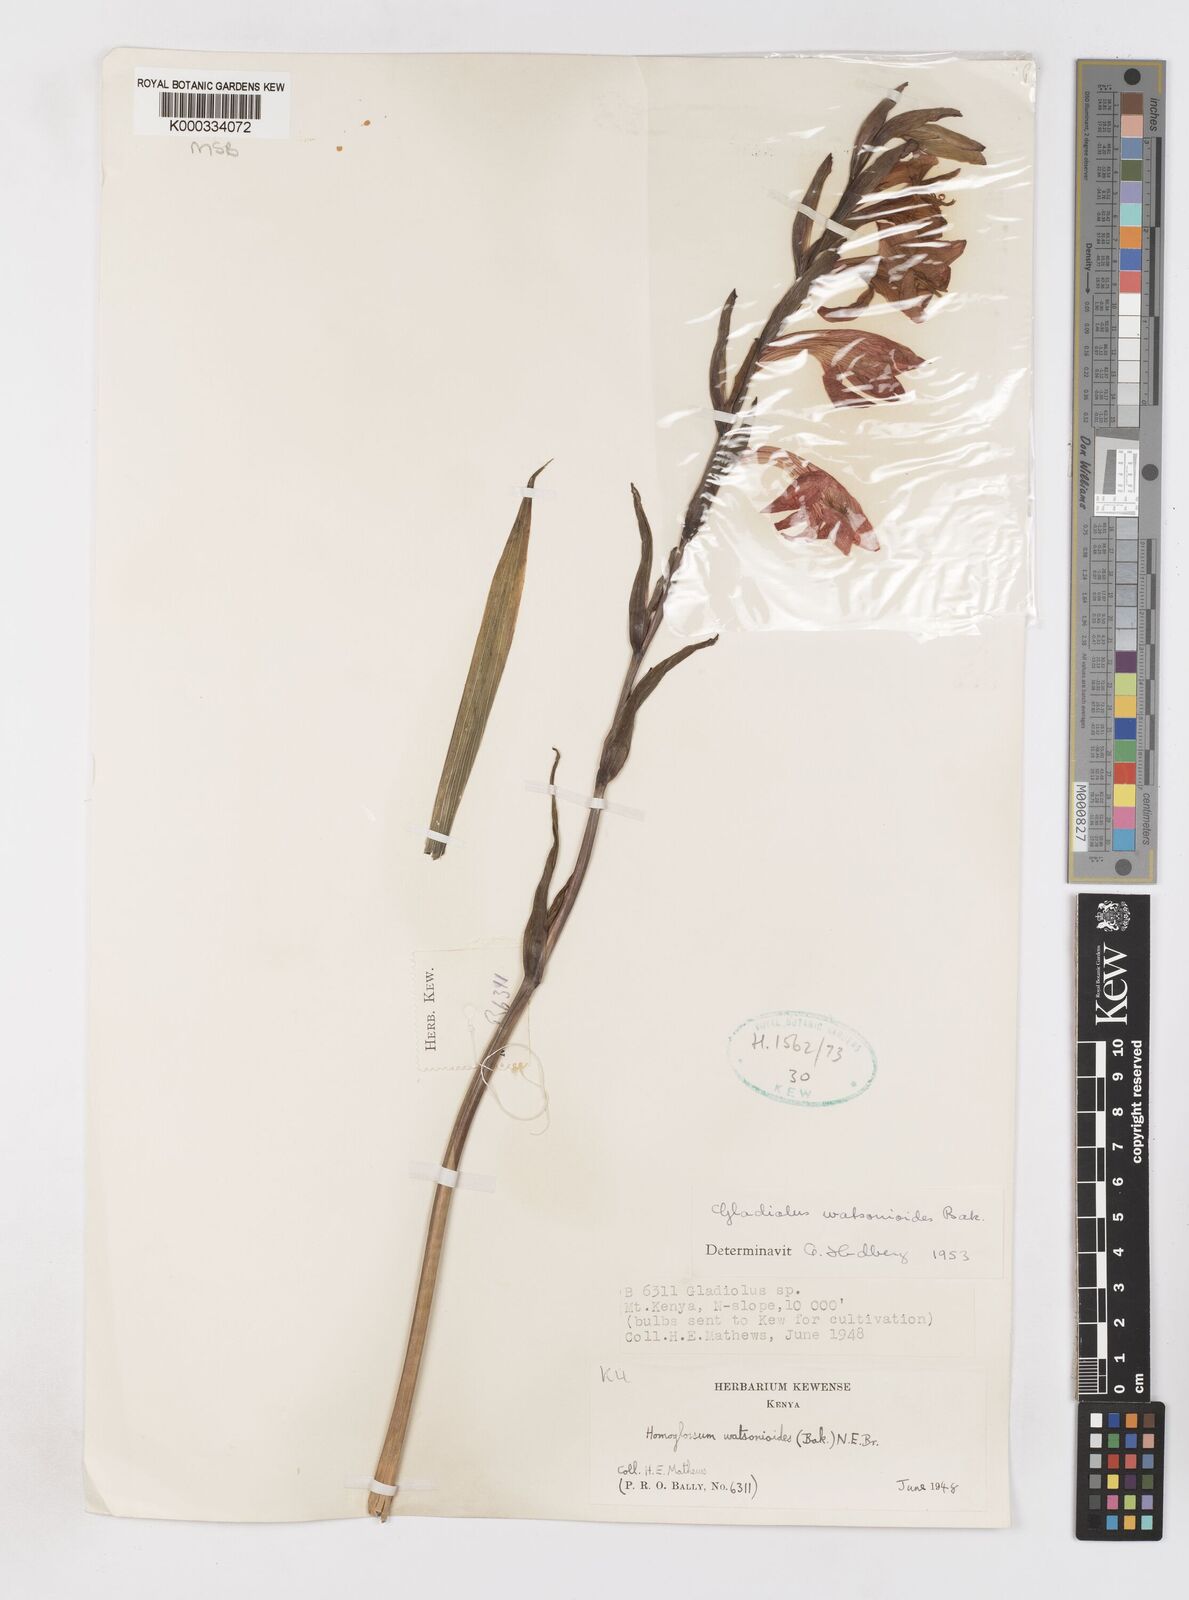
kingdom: Plantae
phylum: Tracheophyta
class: Liliopsida
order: Asparagales
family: Iridaceae
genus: Gladiolus
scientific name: Gladiolus watsonioides
